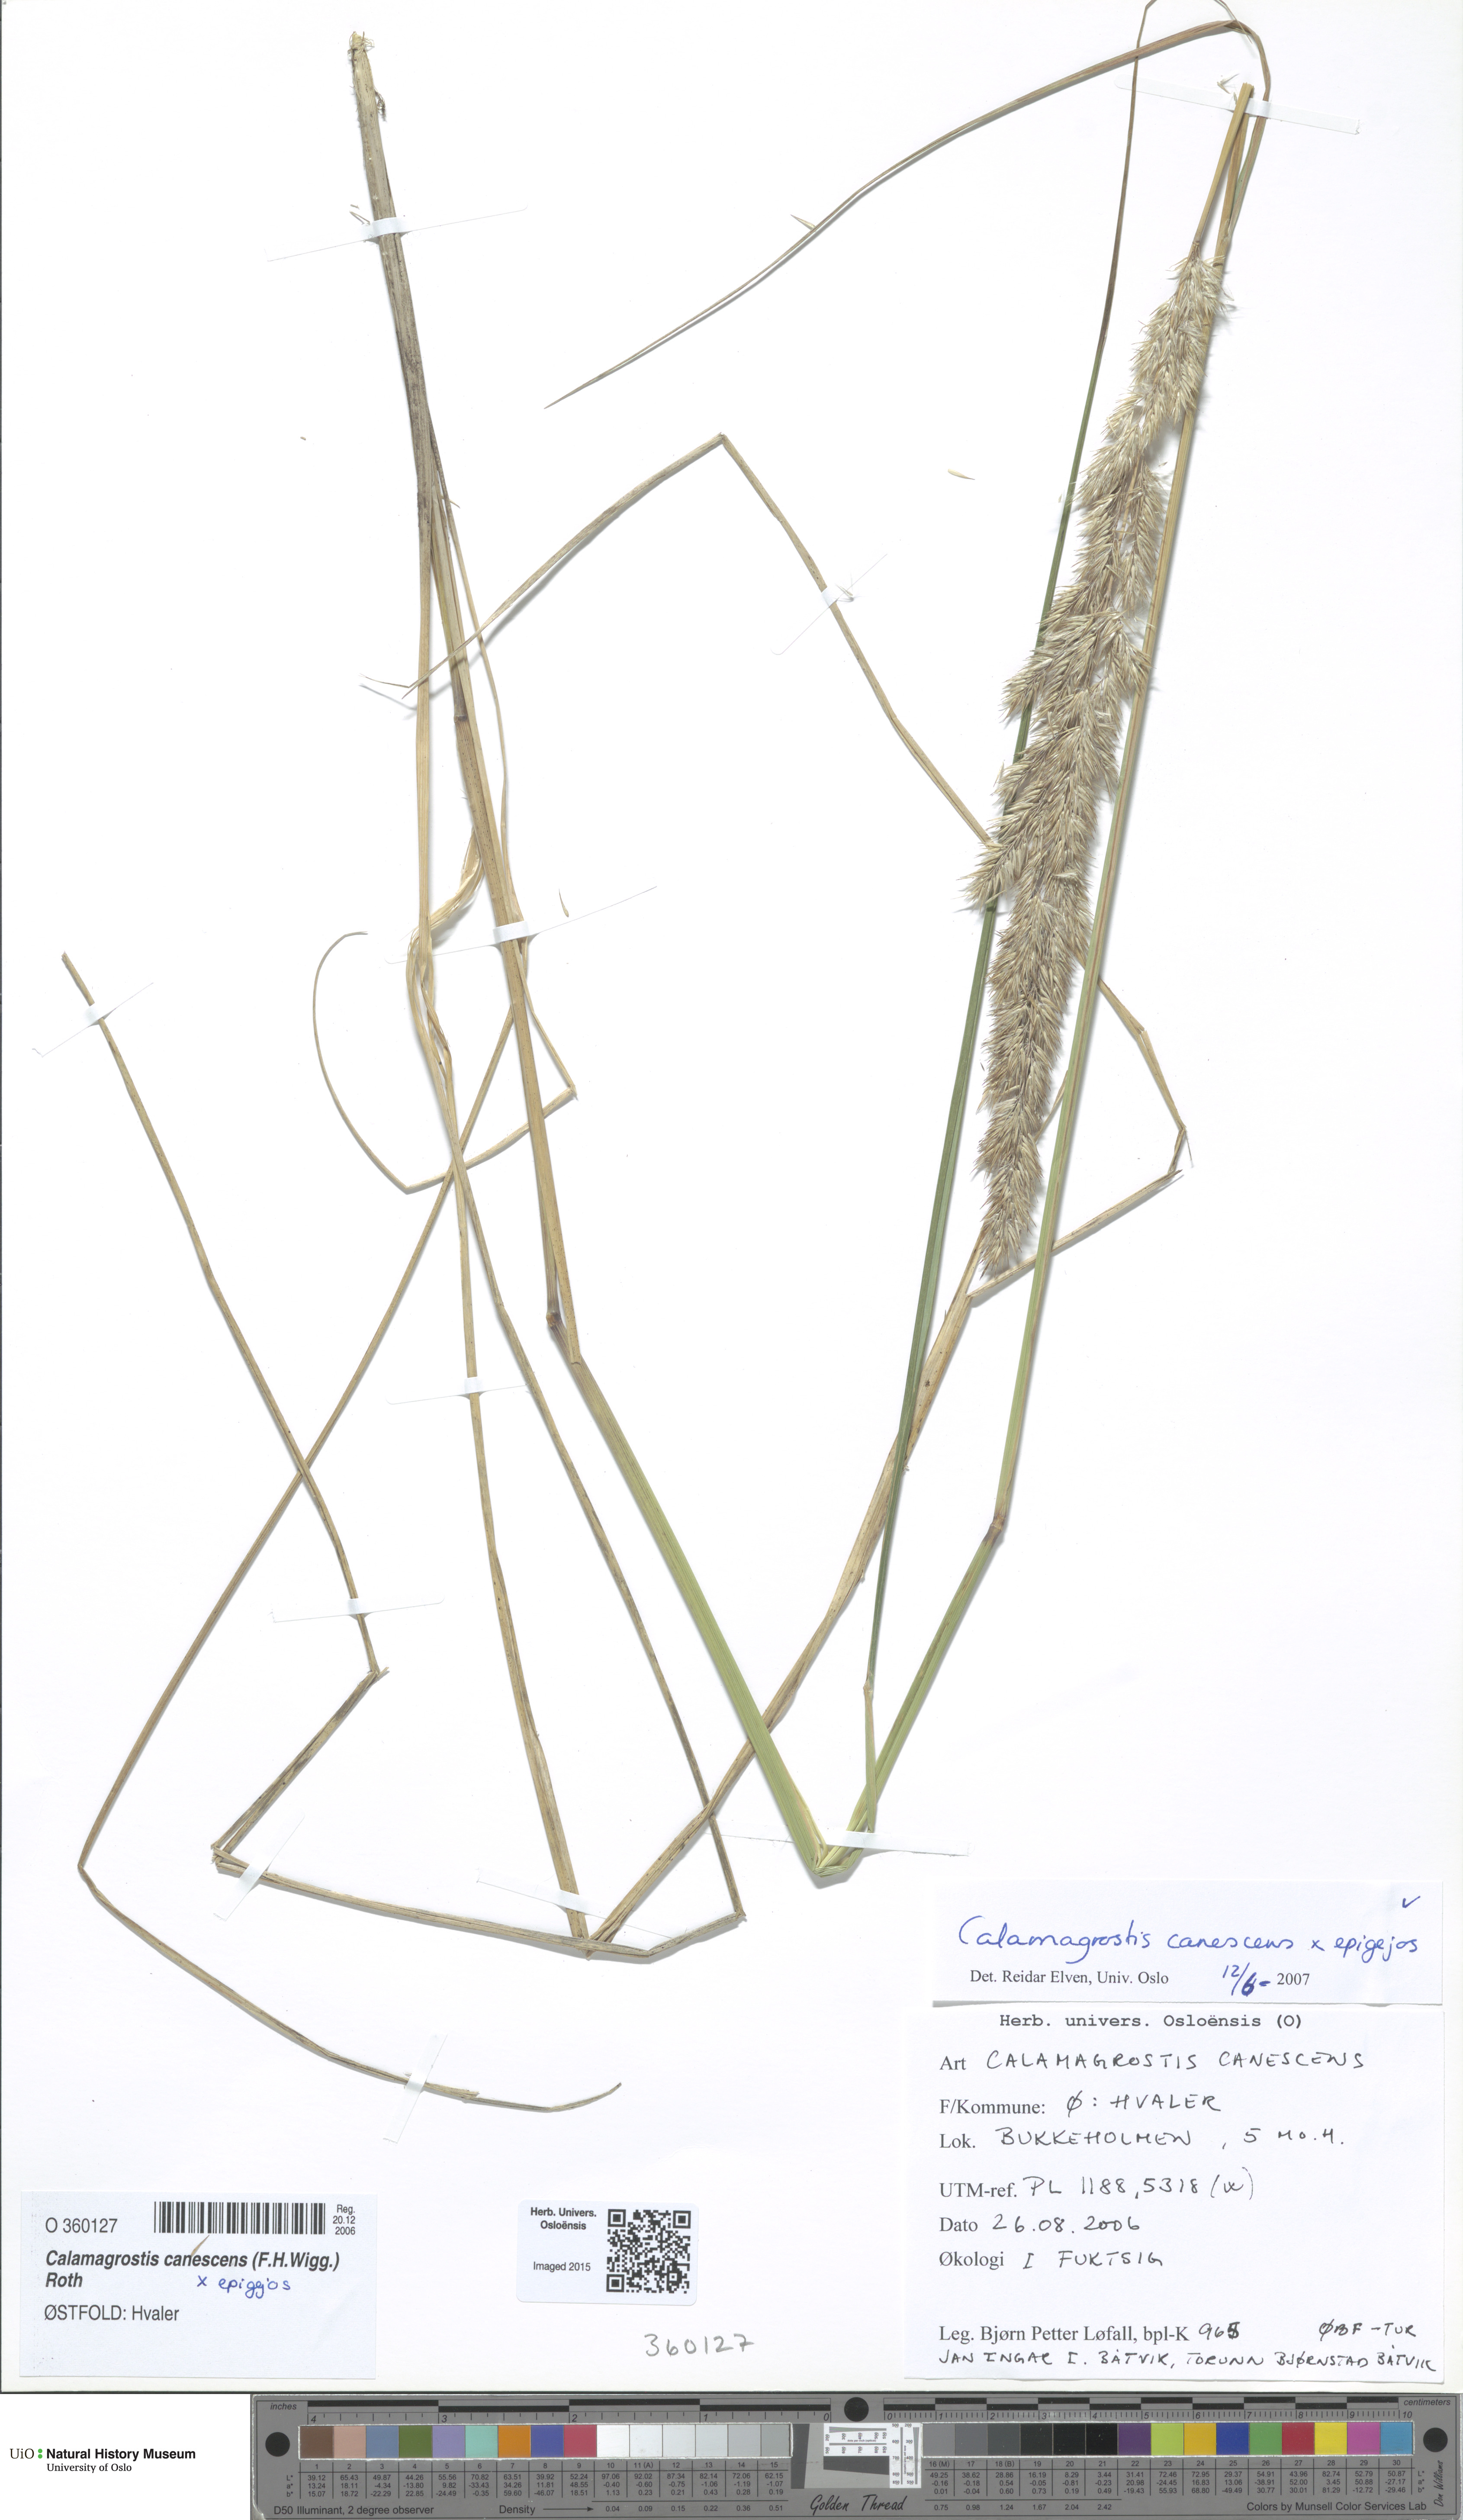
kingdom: Plantae
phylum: Tracheophyta
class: Liliopsida
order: Poales
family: Poaceae
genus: Calamagrostis
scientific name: Calamagrostis
